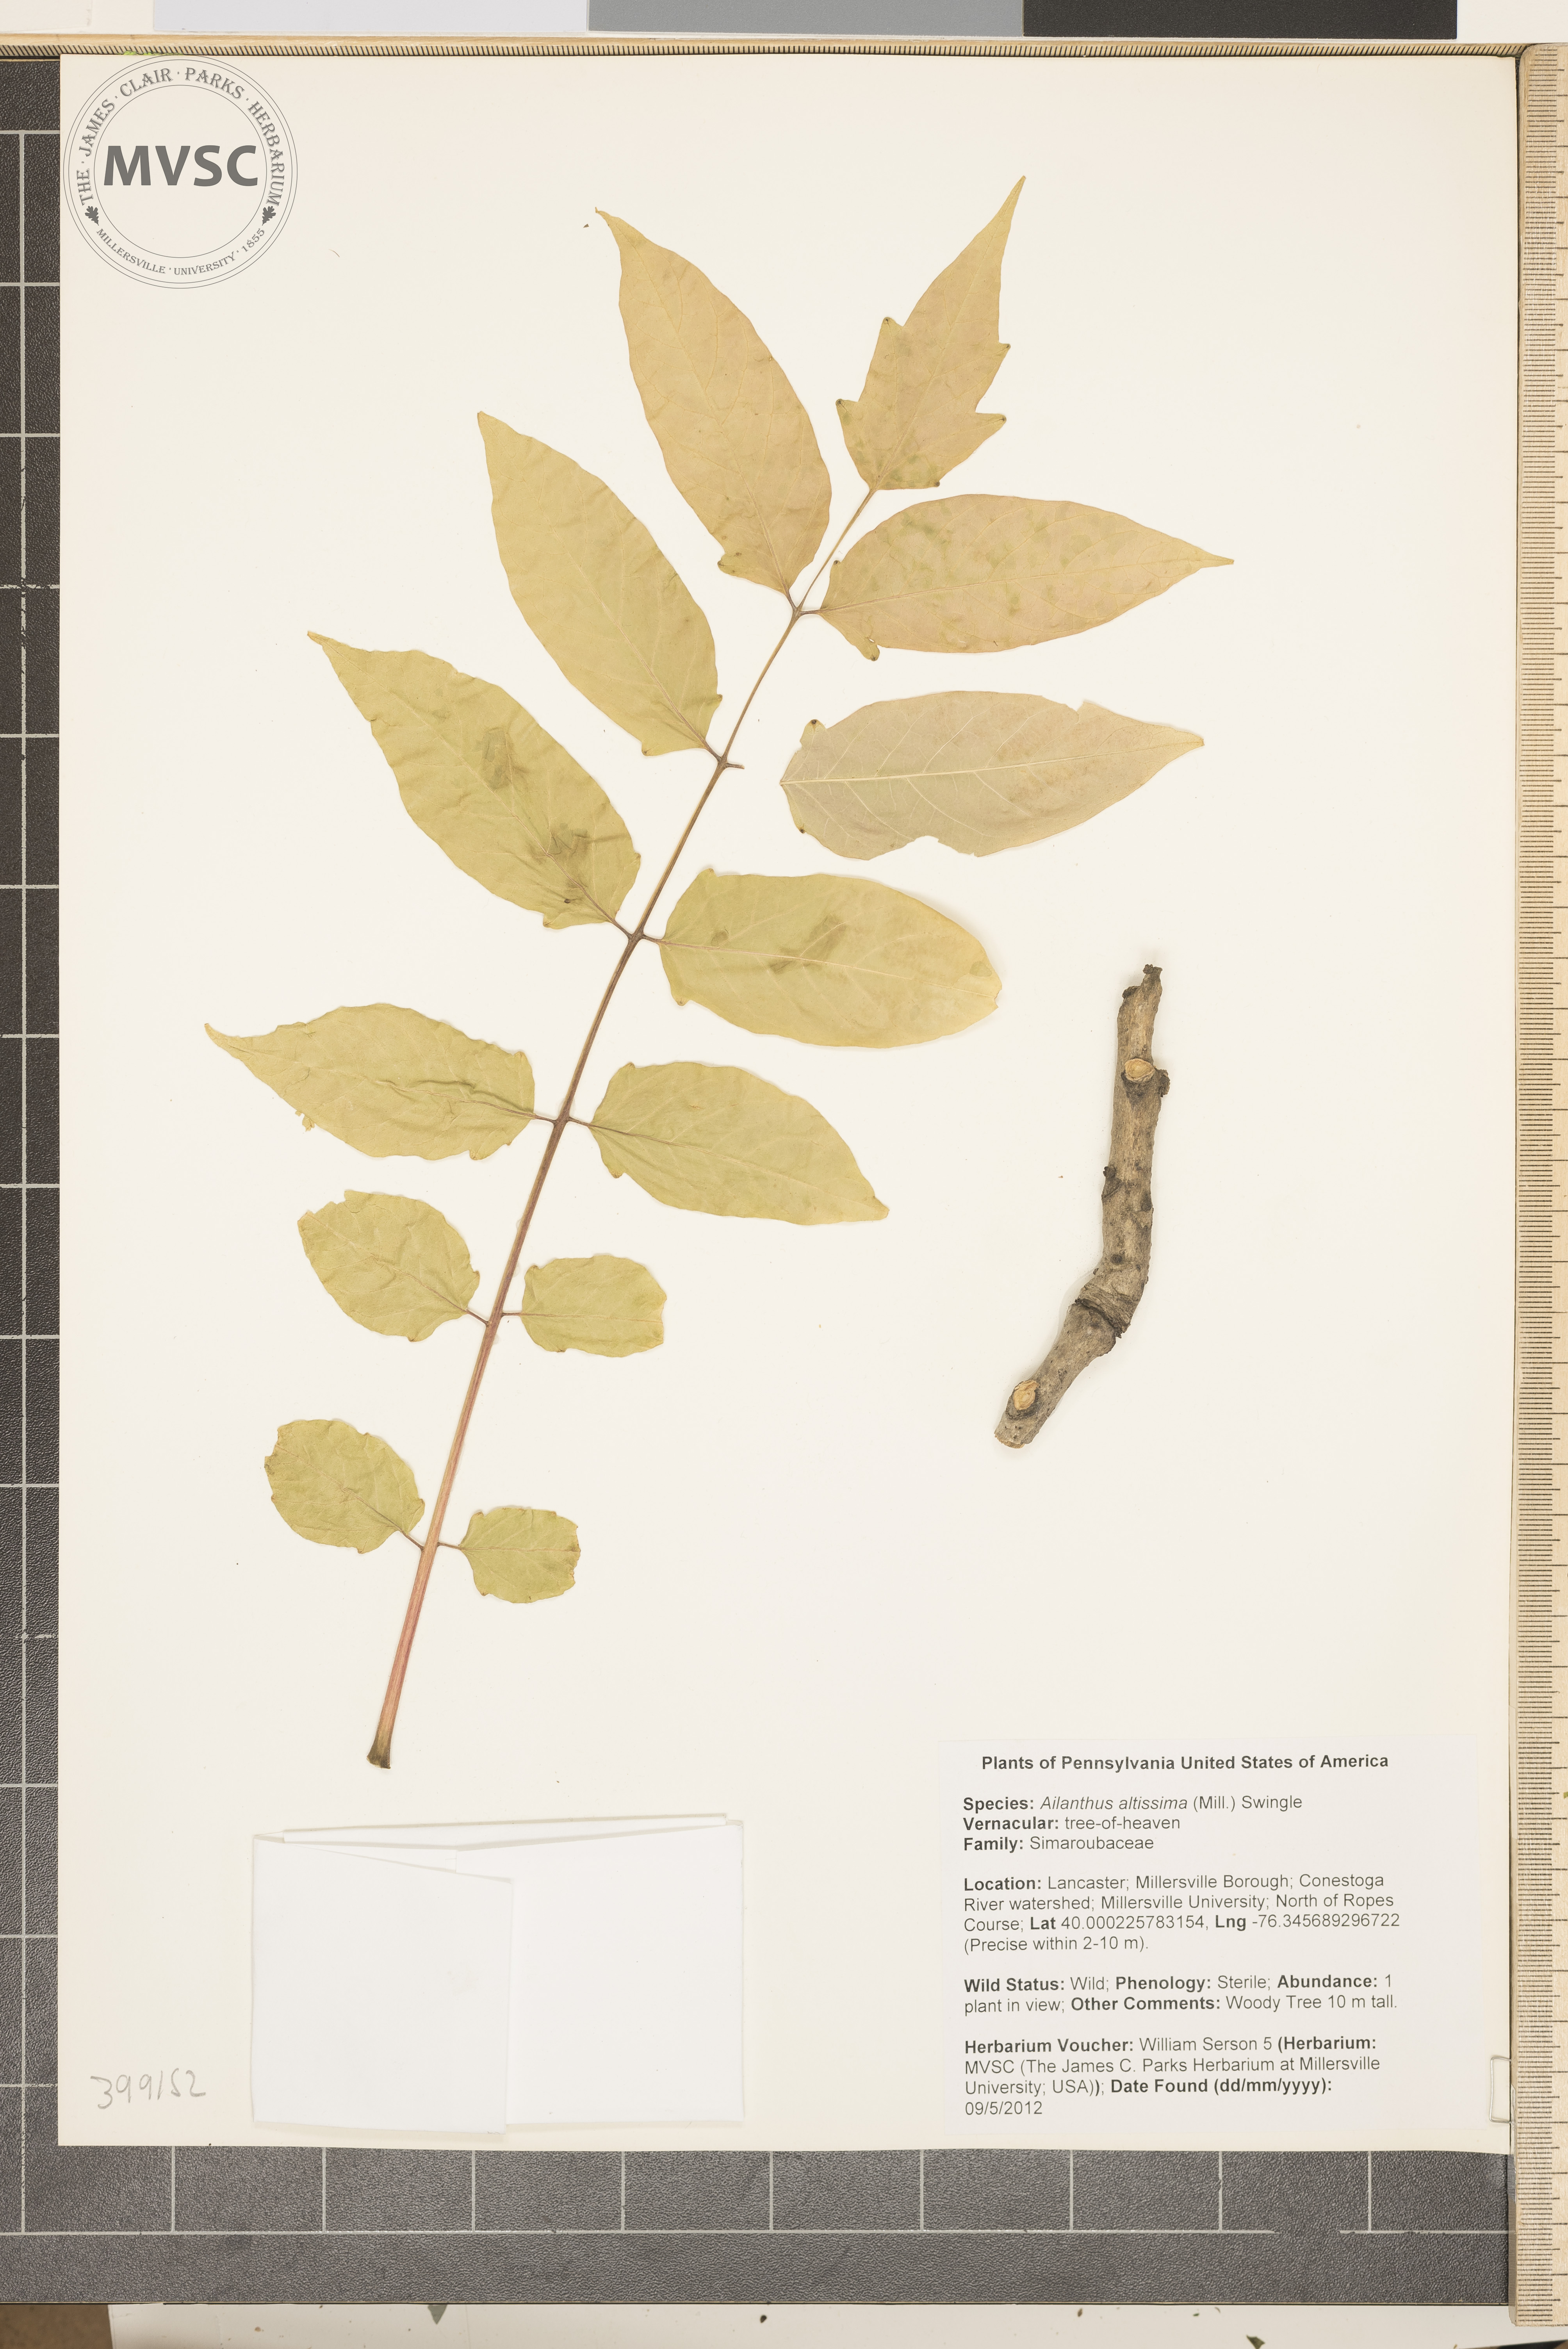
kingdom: Plantae
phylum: Tracheophyta
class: Magnoliopsida
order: Sapindales
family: Simaroubaceae
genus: Ailanthus
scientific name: Ailanthus altissima
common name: Tree-of-heaven
